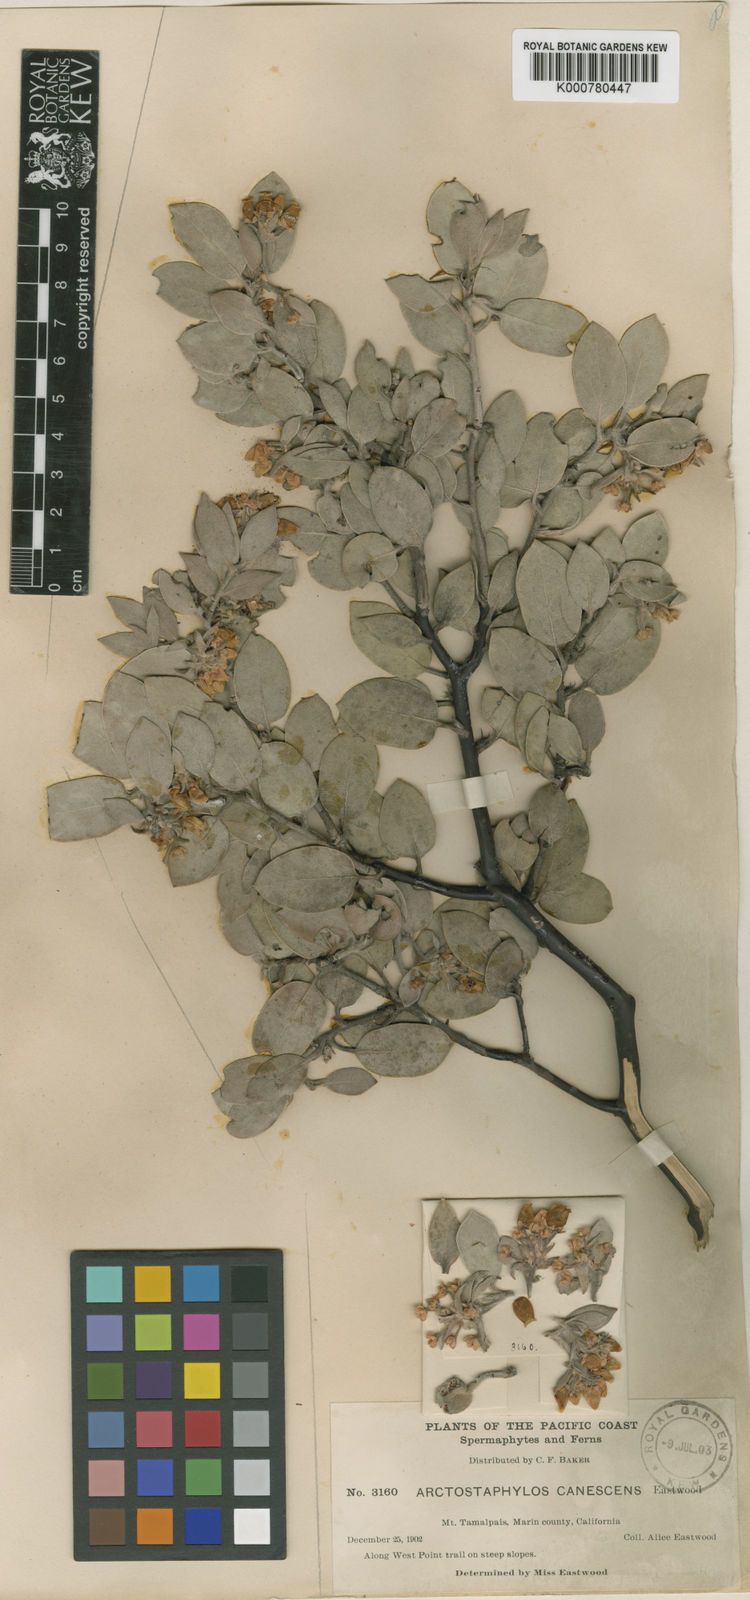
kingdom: Plantae
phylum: Tracheophyta
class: Magnoliopsida
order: Ericales
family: Ericaceae
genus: Arctostaphylos
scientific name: Arctostaphylos canescens
